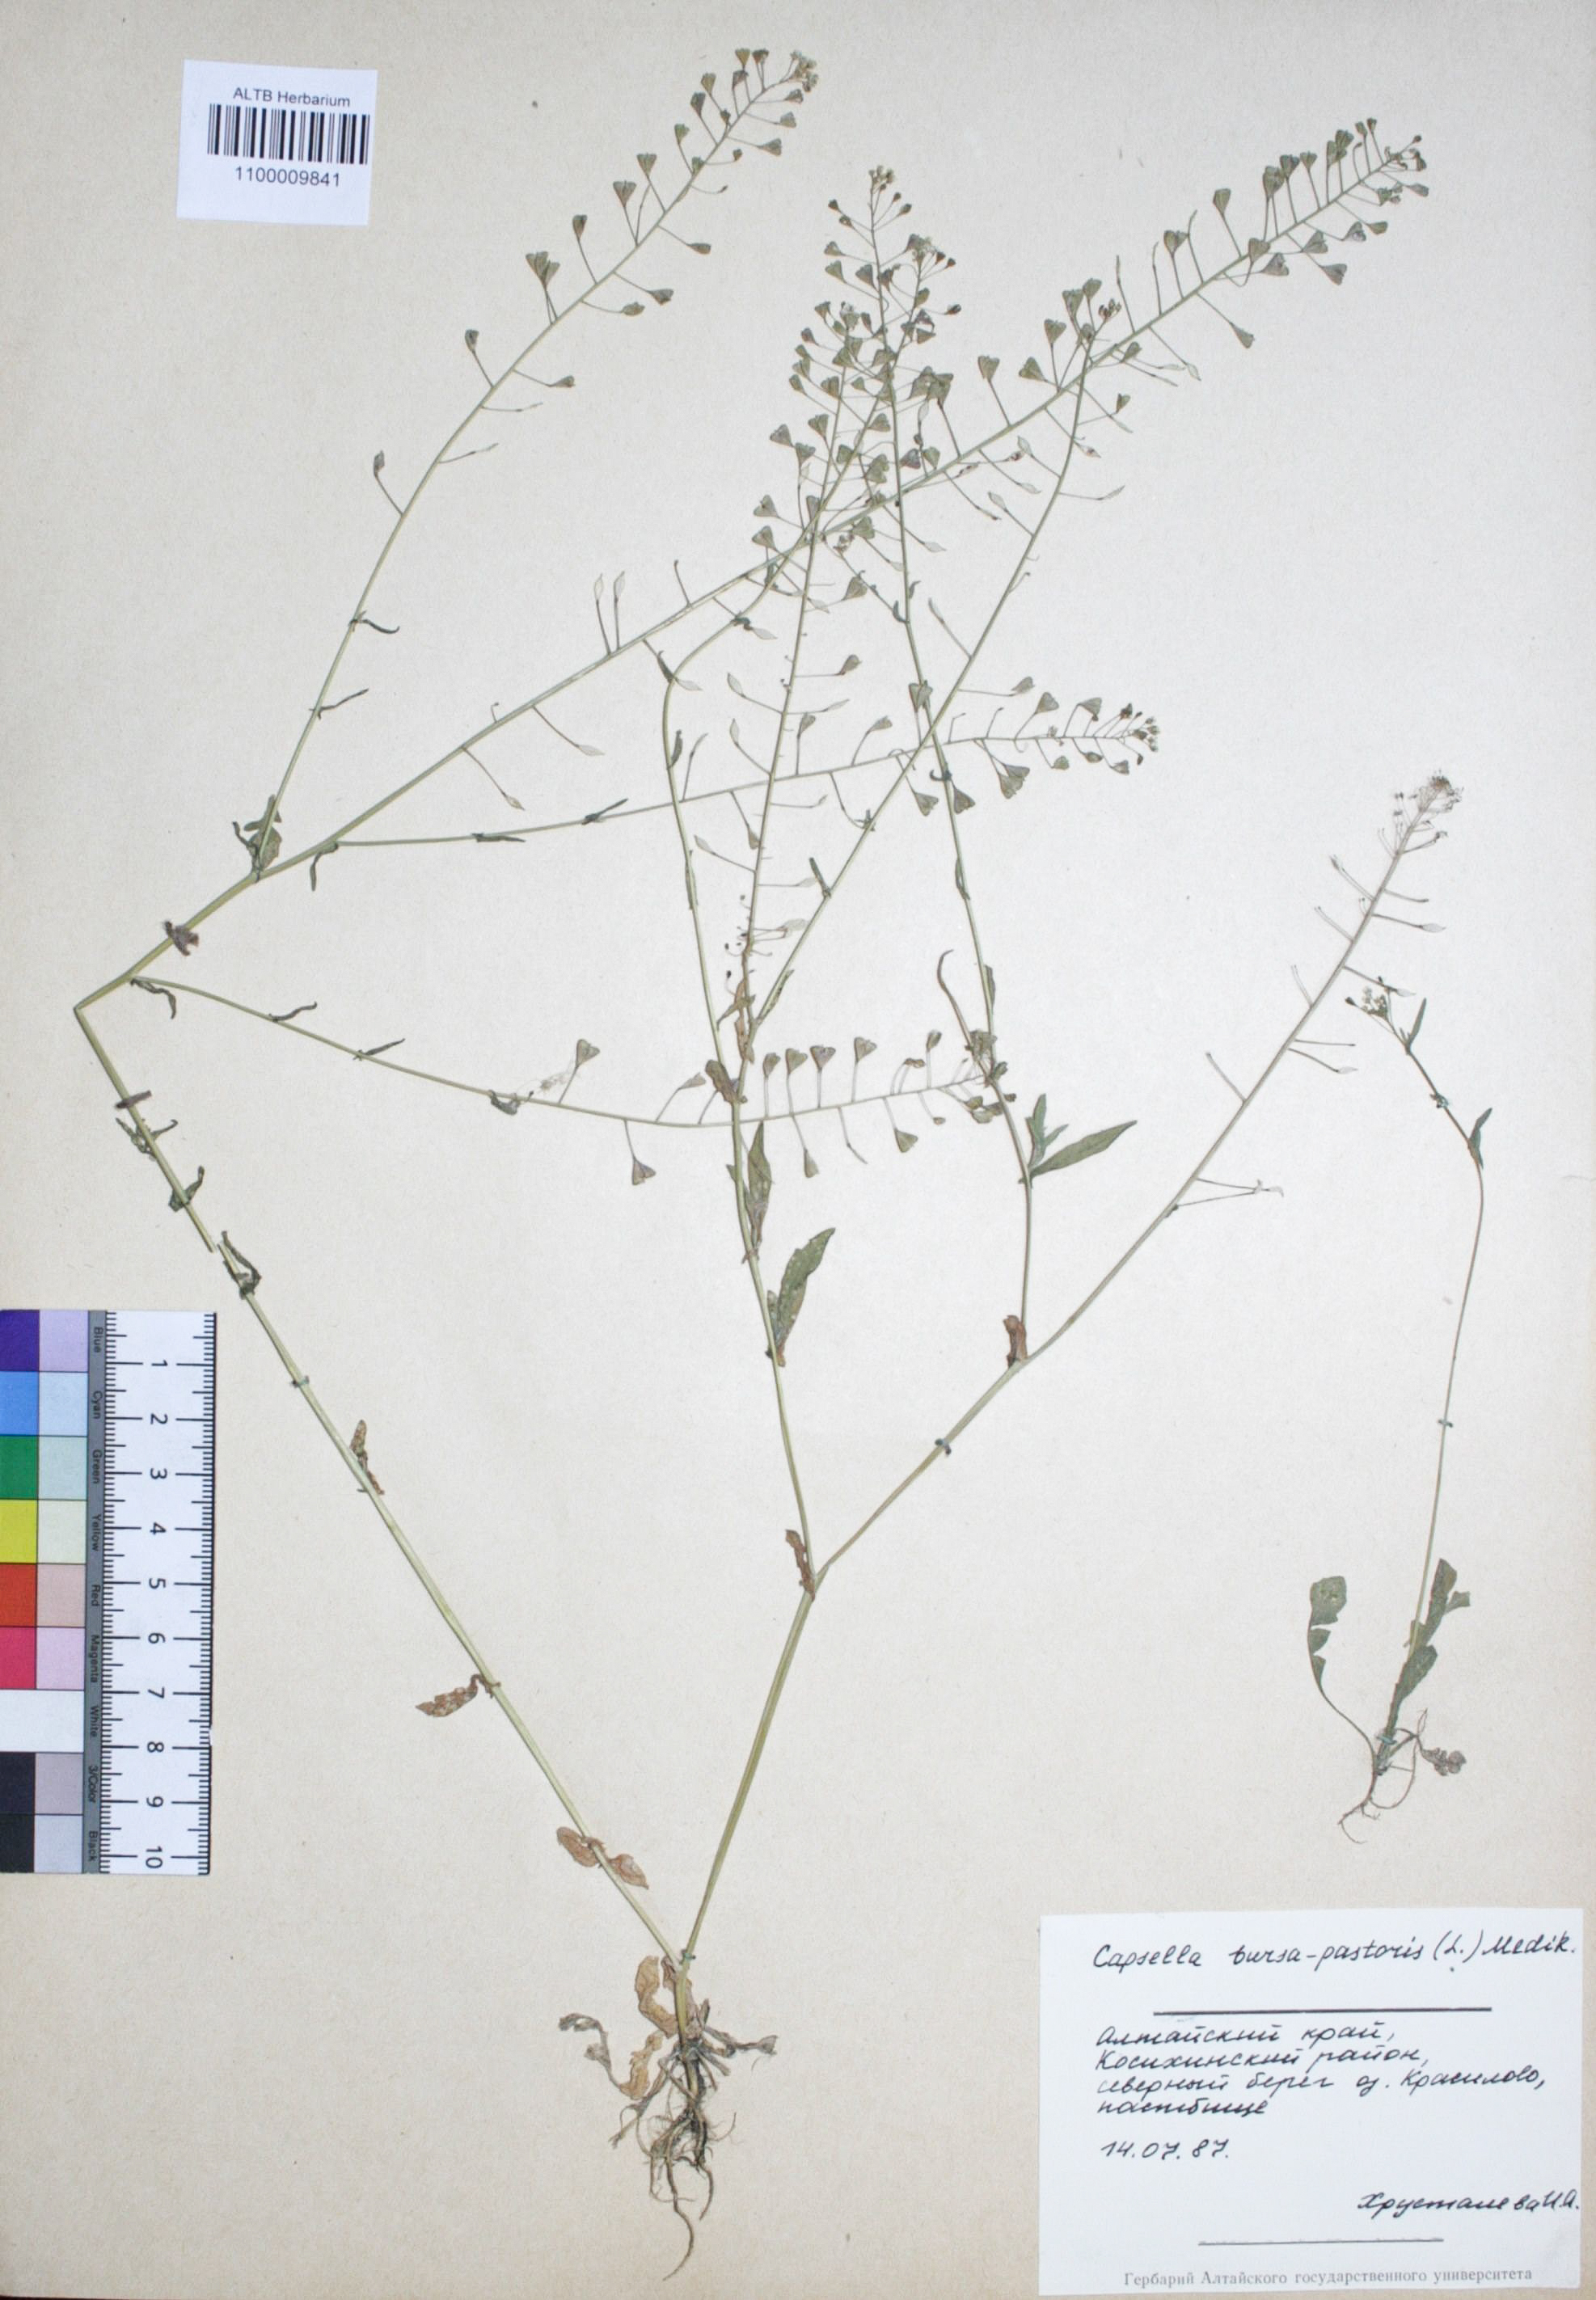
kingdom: Plantae
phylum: Tracheophyta
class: Magnoliopsida
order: Brassicales
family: Brassicaceae
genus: Capsella
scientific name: Capsella bursa-pastoris
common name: Shepherd's purse
